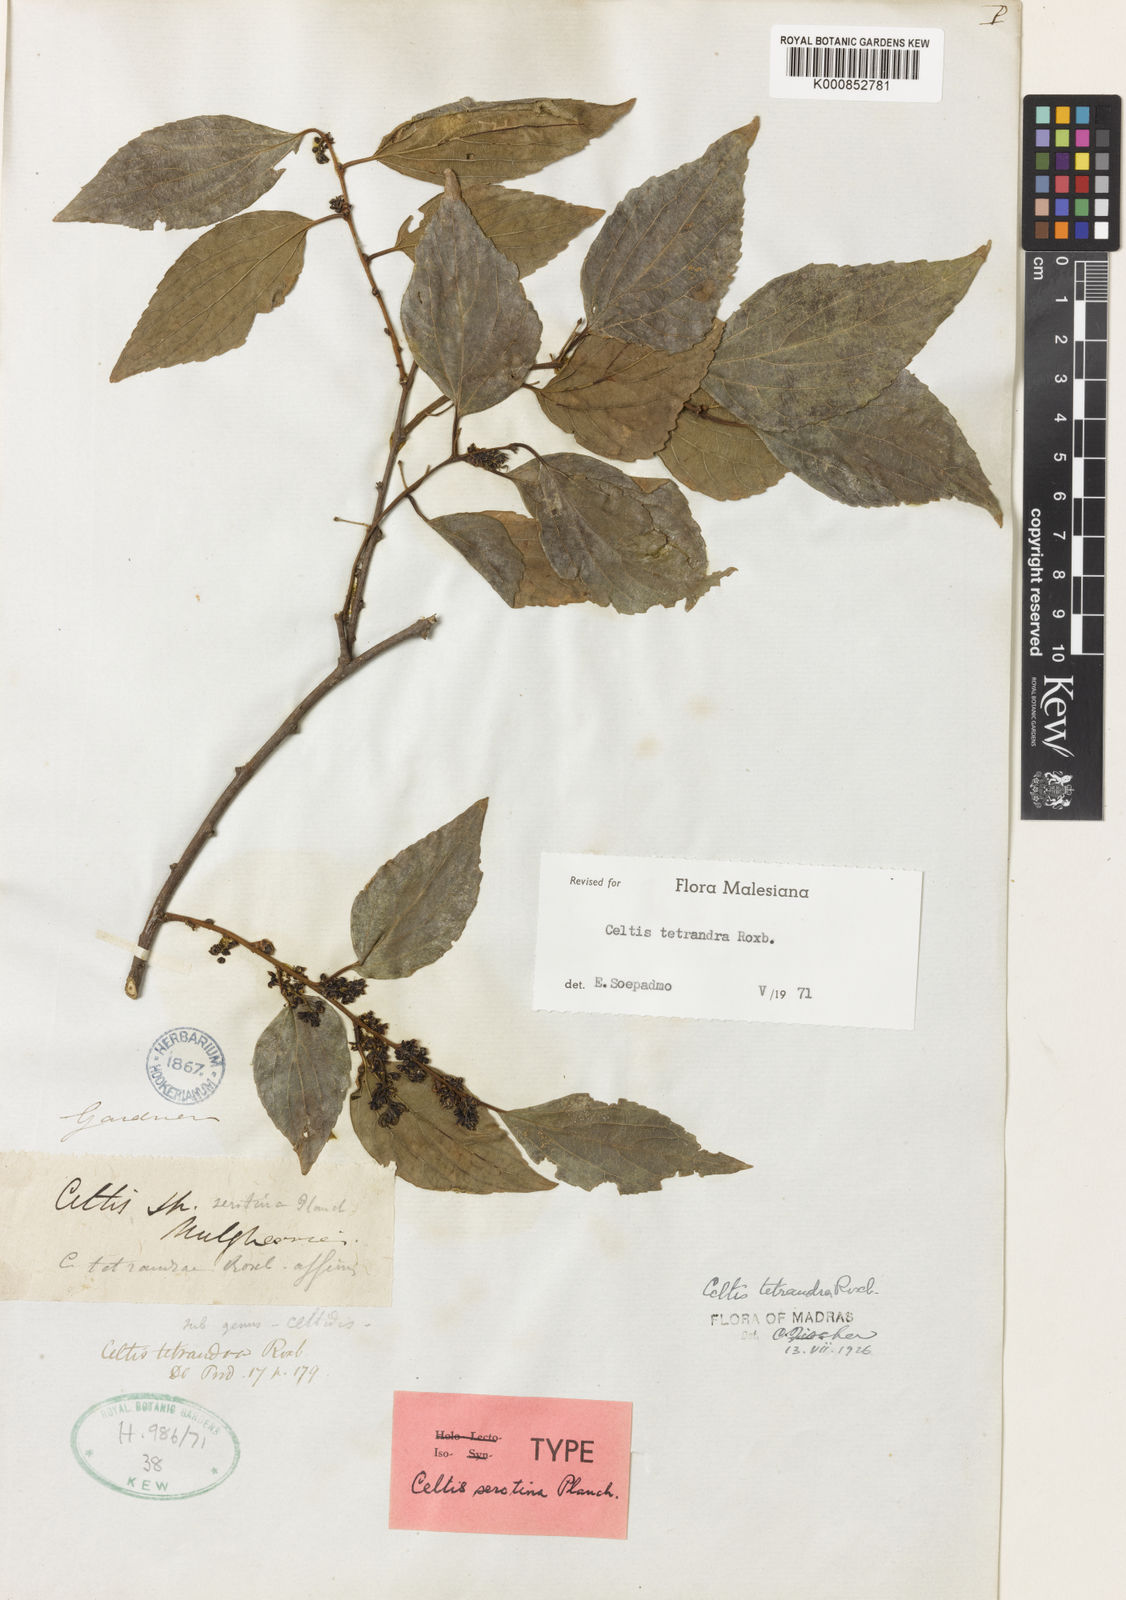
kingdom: Plantae
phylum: Tracheophyta
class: Magnoliopsida
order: Rosales
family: Cannabaceae
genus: Celtis
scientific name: Celtis tetrandra
